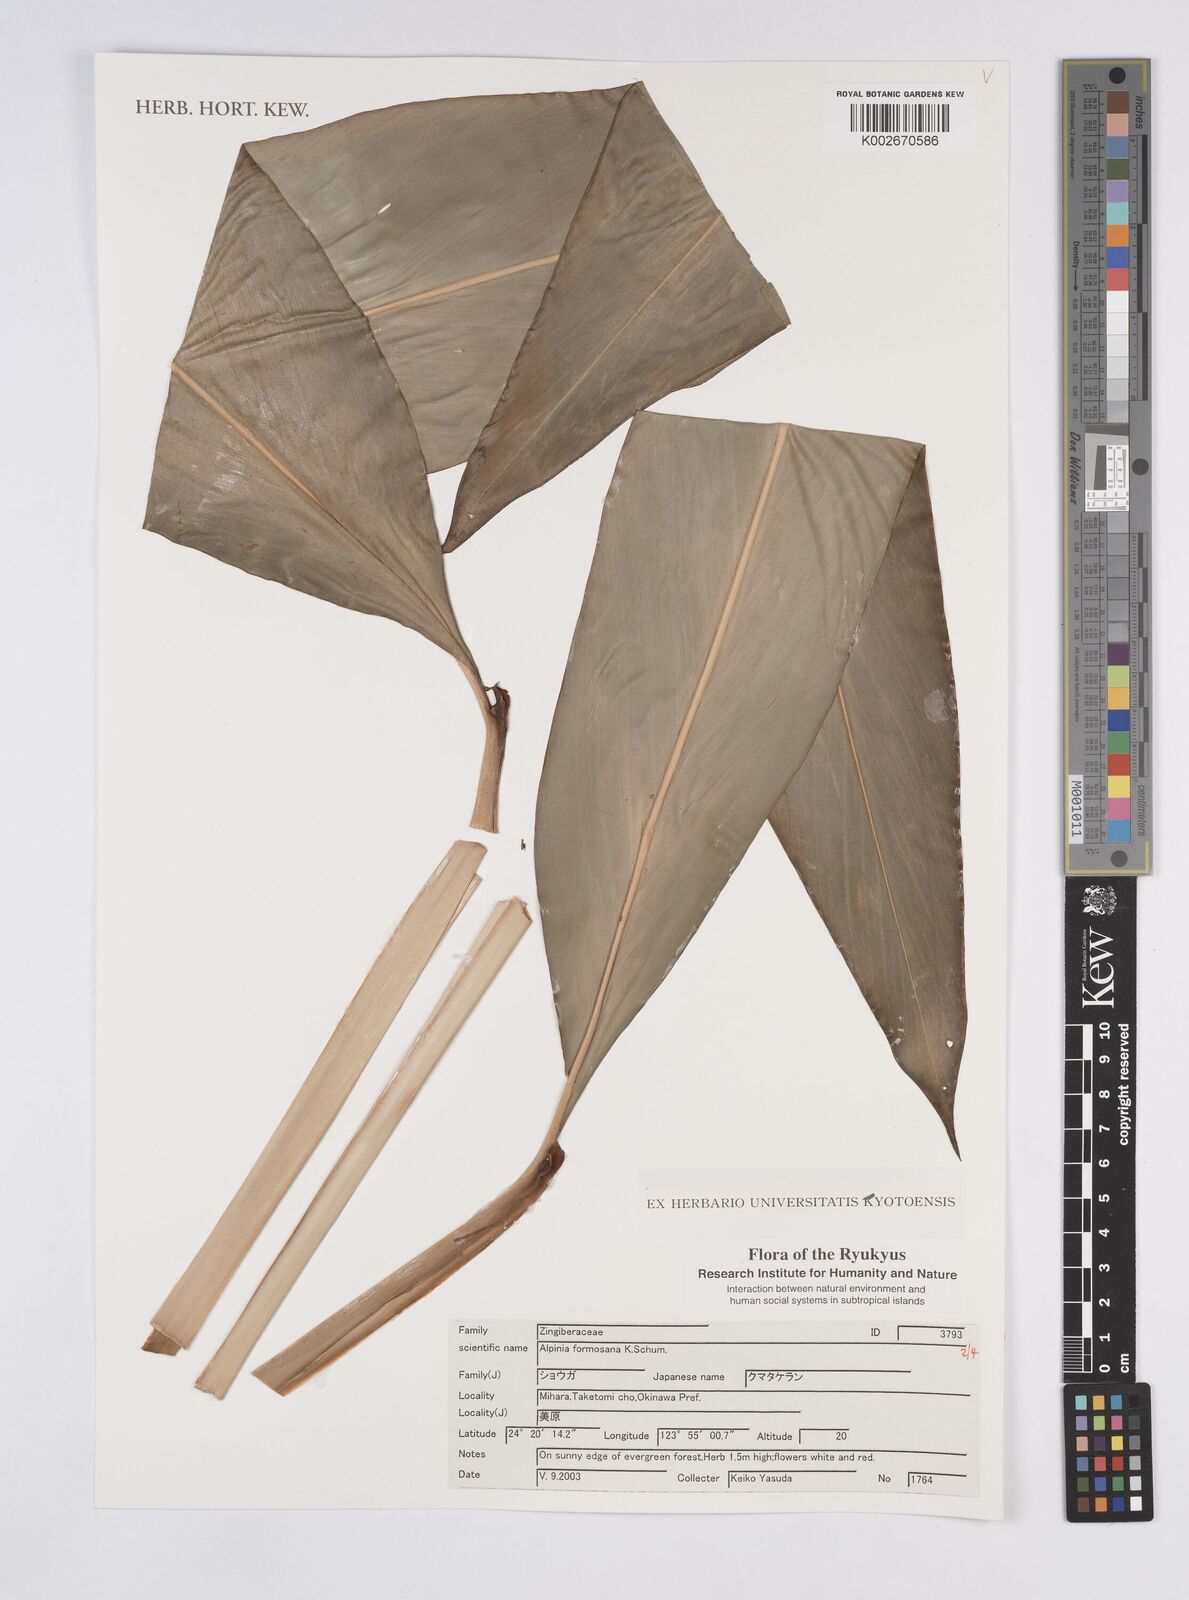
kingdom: Plantae
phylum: Tracheophyta
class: Liliopsida
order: Zingiberales
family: Zingiberaceae
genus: Alpinia
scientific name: Alpinia formosana
